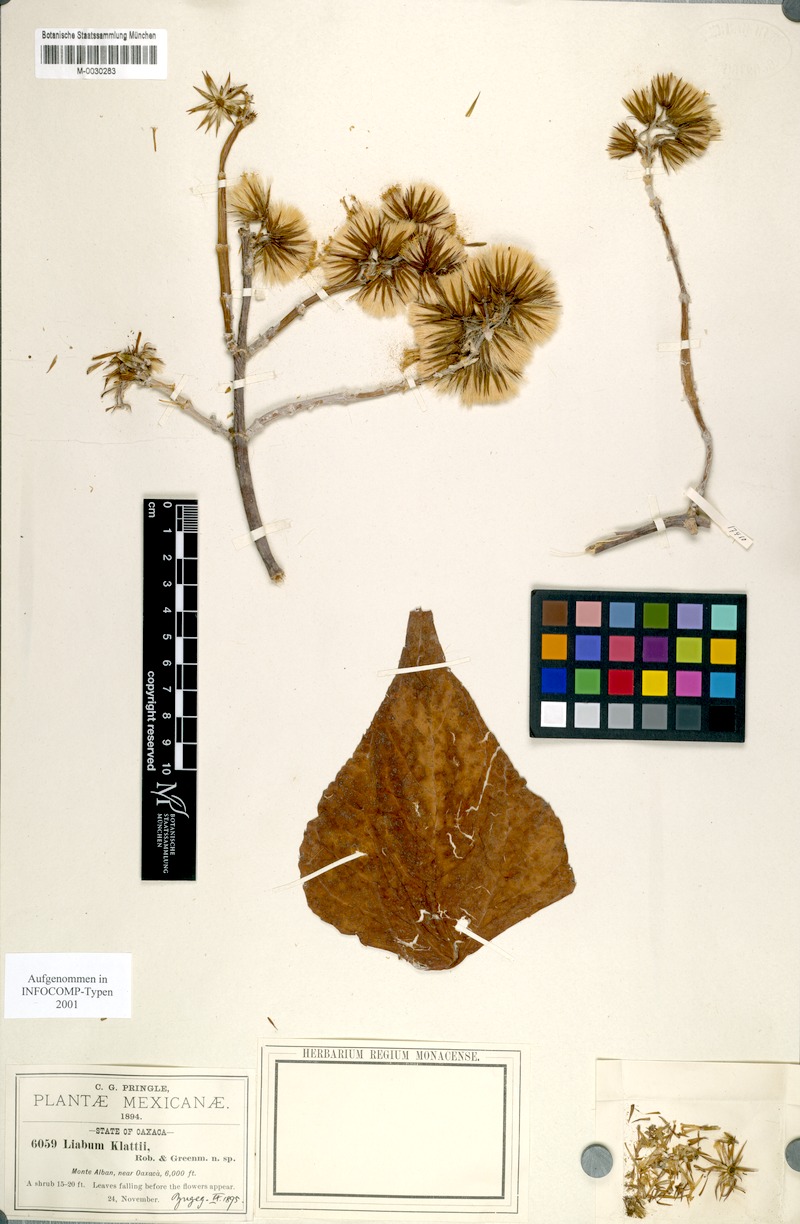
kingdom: Plantae
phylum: Tracheophyta
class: Magnoliopsida
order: Asterales
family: Asteraceae
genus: Sinclairiopsis
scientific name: Sinclairiopsis klattii
